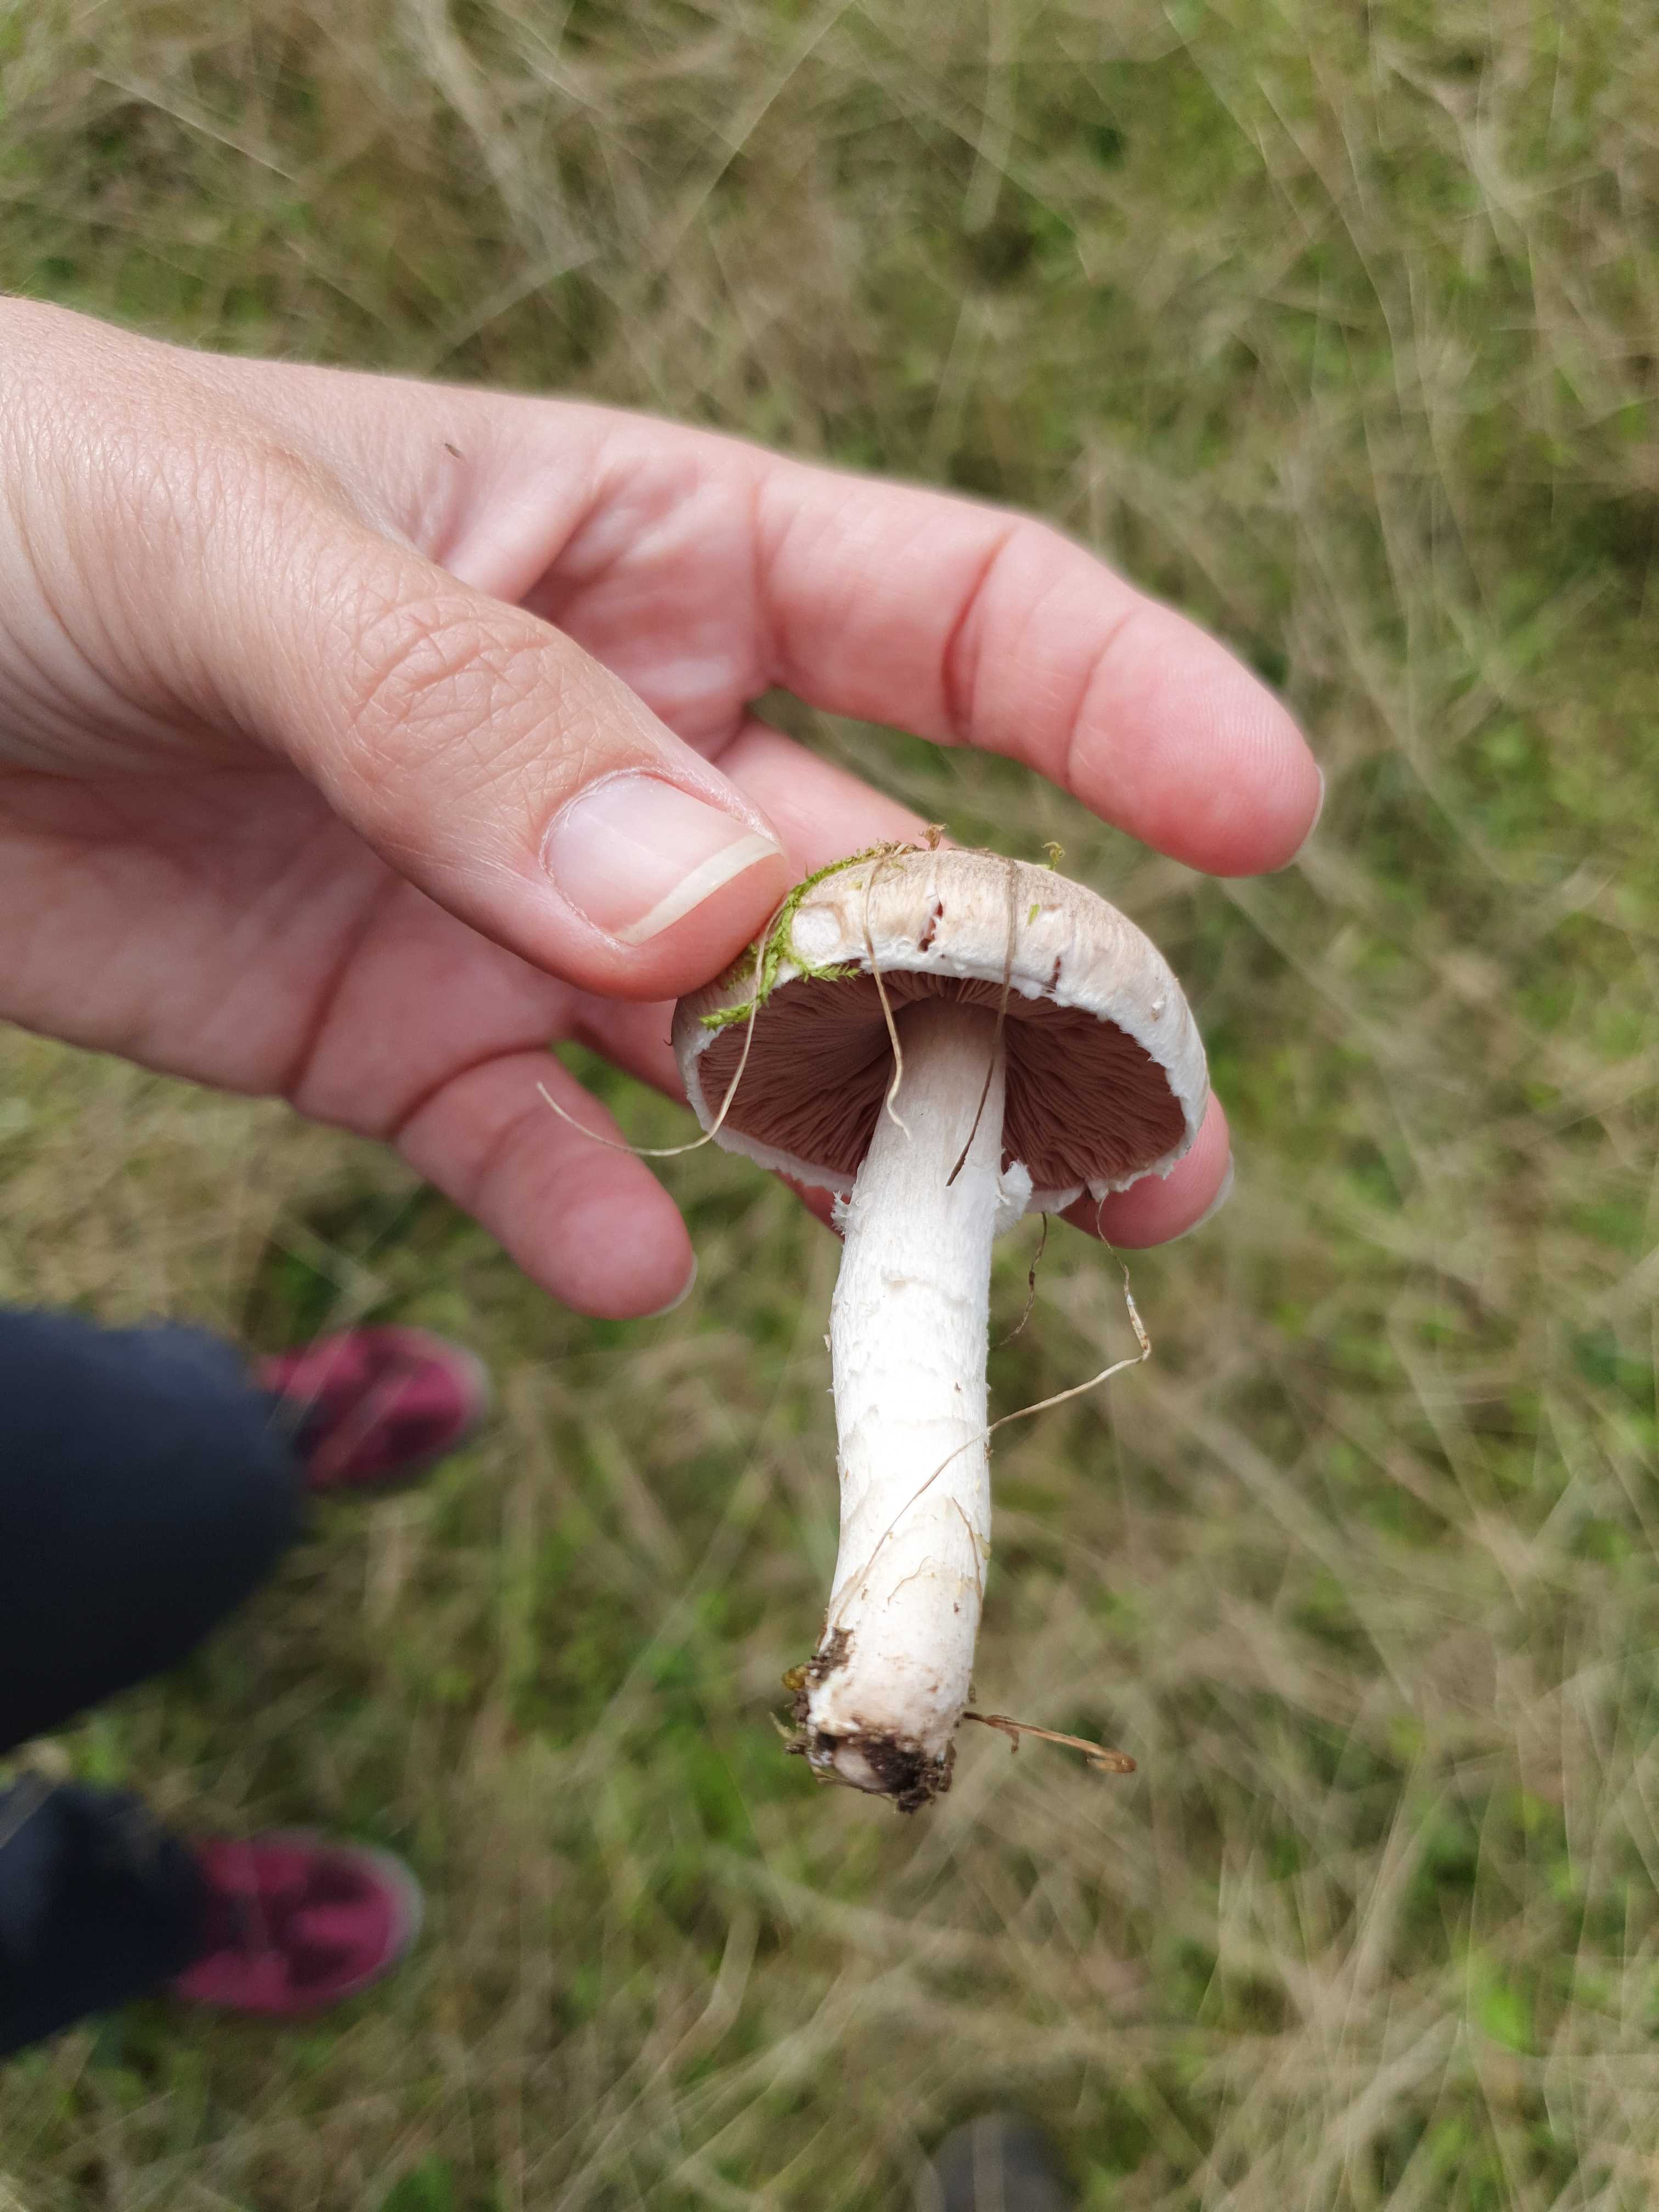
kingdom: Fungi
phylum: Basidiomycota
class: Agaricomycetes
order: Agaricales
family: Agaricaceae
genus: Agaricus
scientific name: Agaricus campestris
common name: mark-champignon
